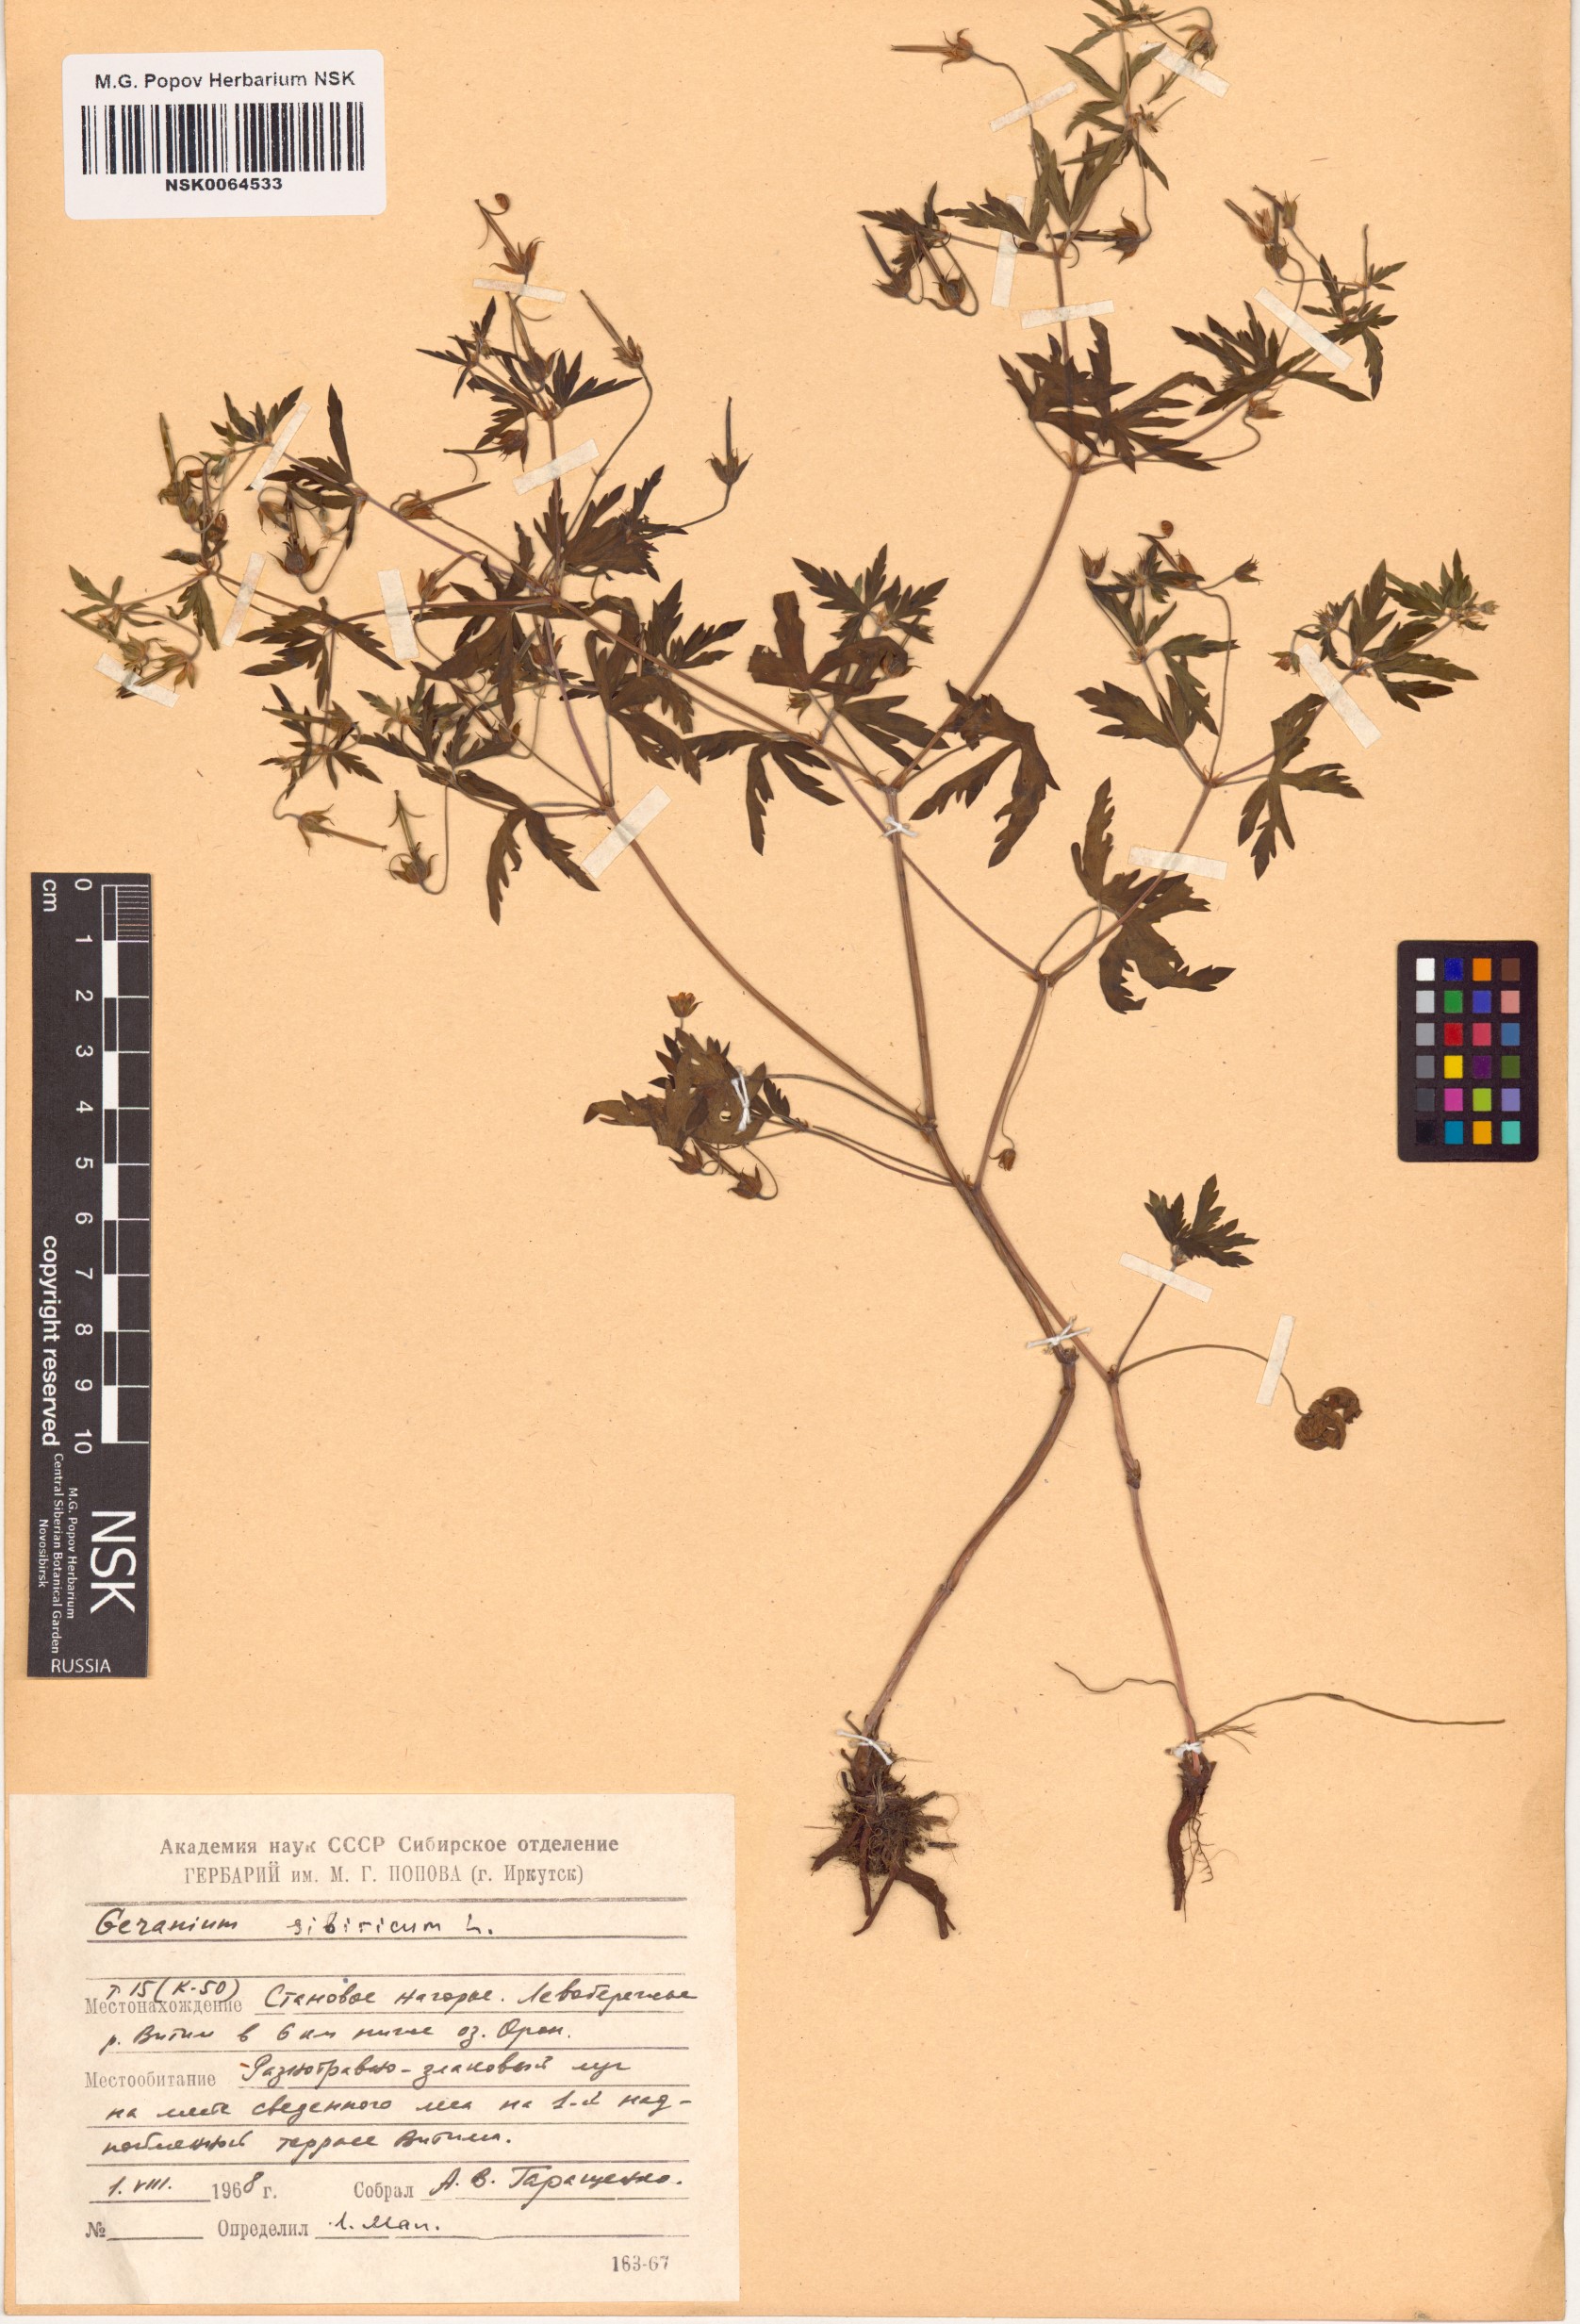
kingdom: Plantae
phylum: Tracheophyta
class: Magnoliopsida
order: Geraniales
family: Geraniaceae
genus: Geranium
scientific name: Geranium sibiricum
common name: Siberian crane's-bill
